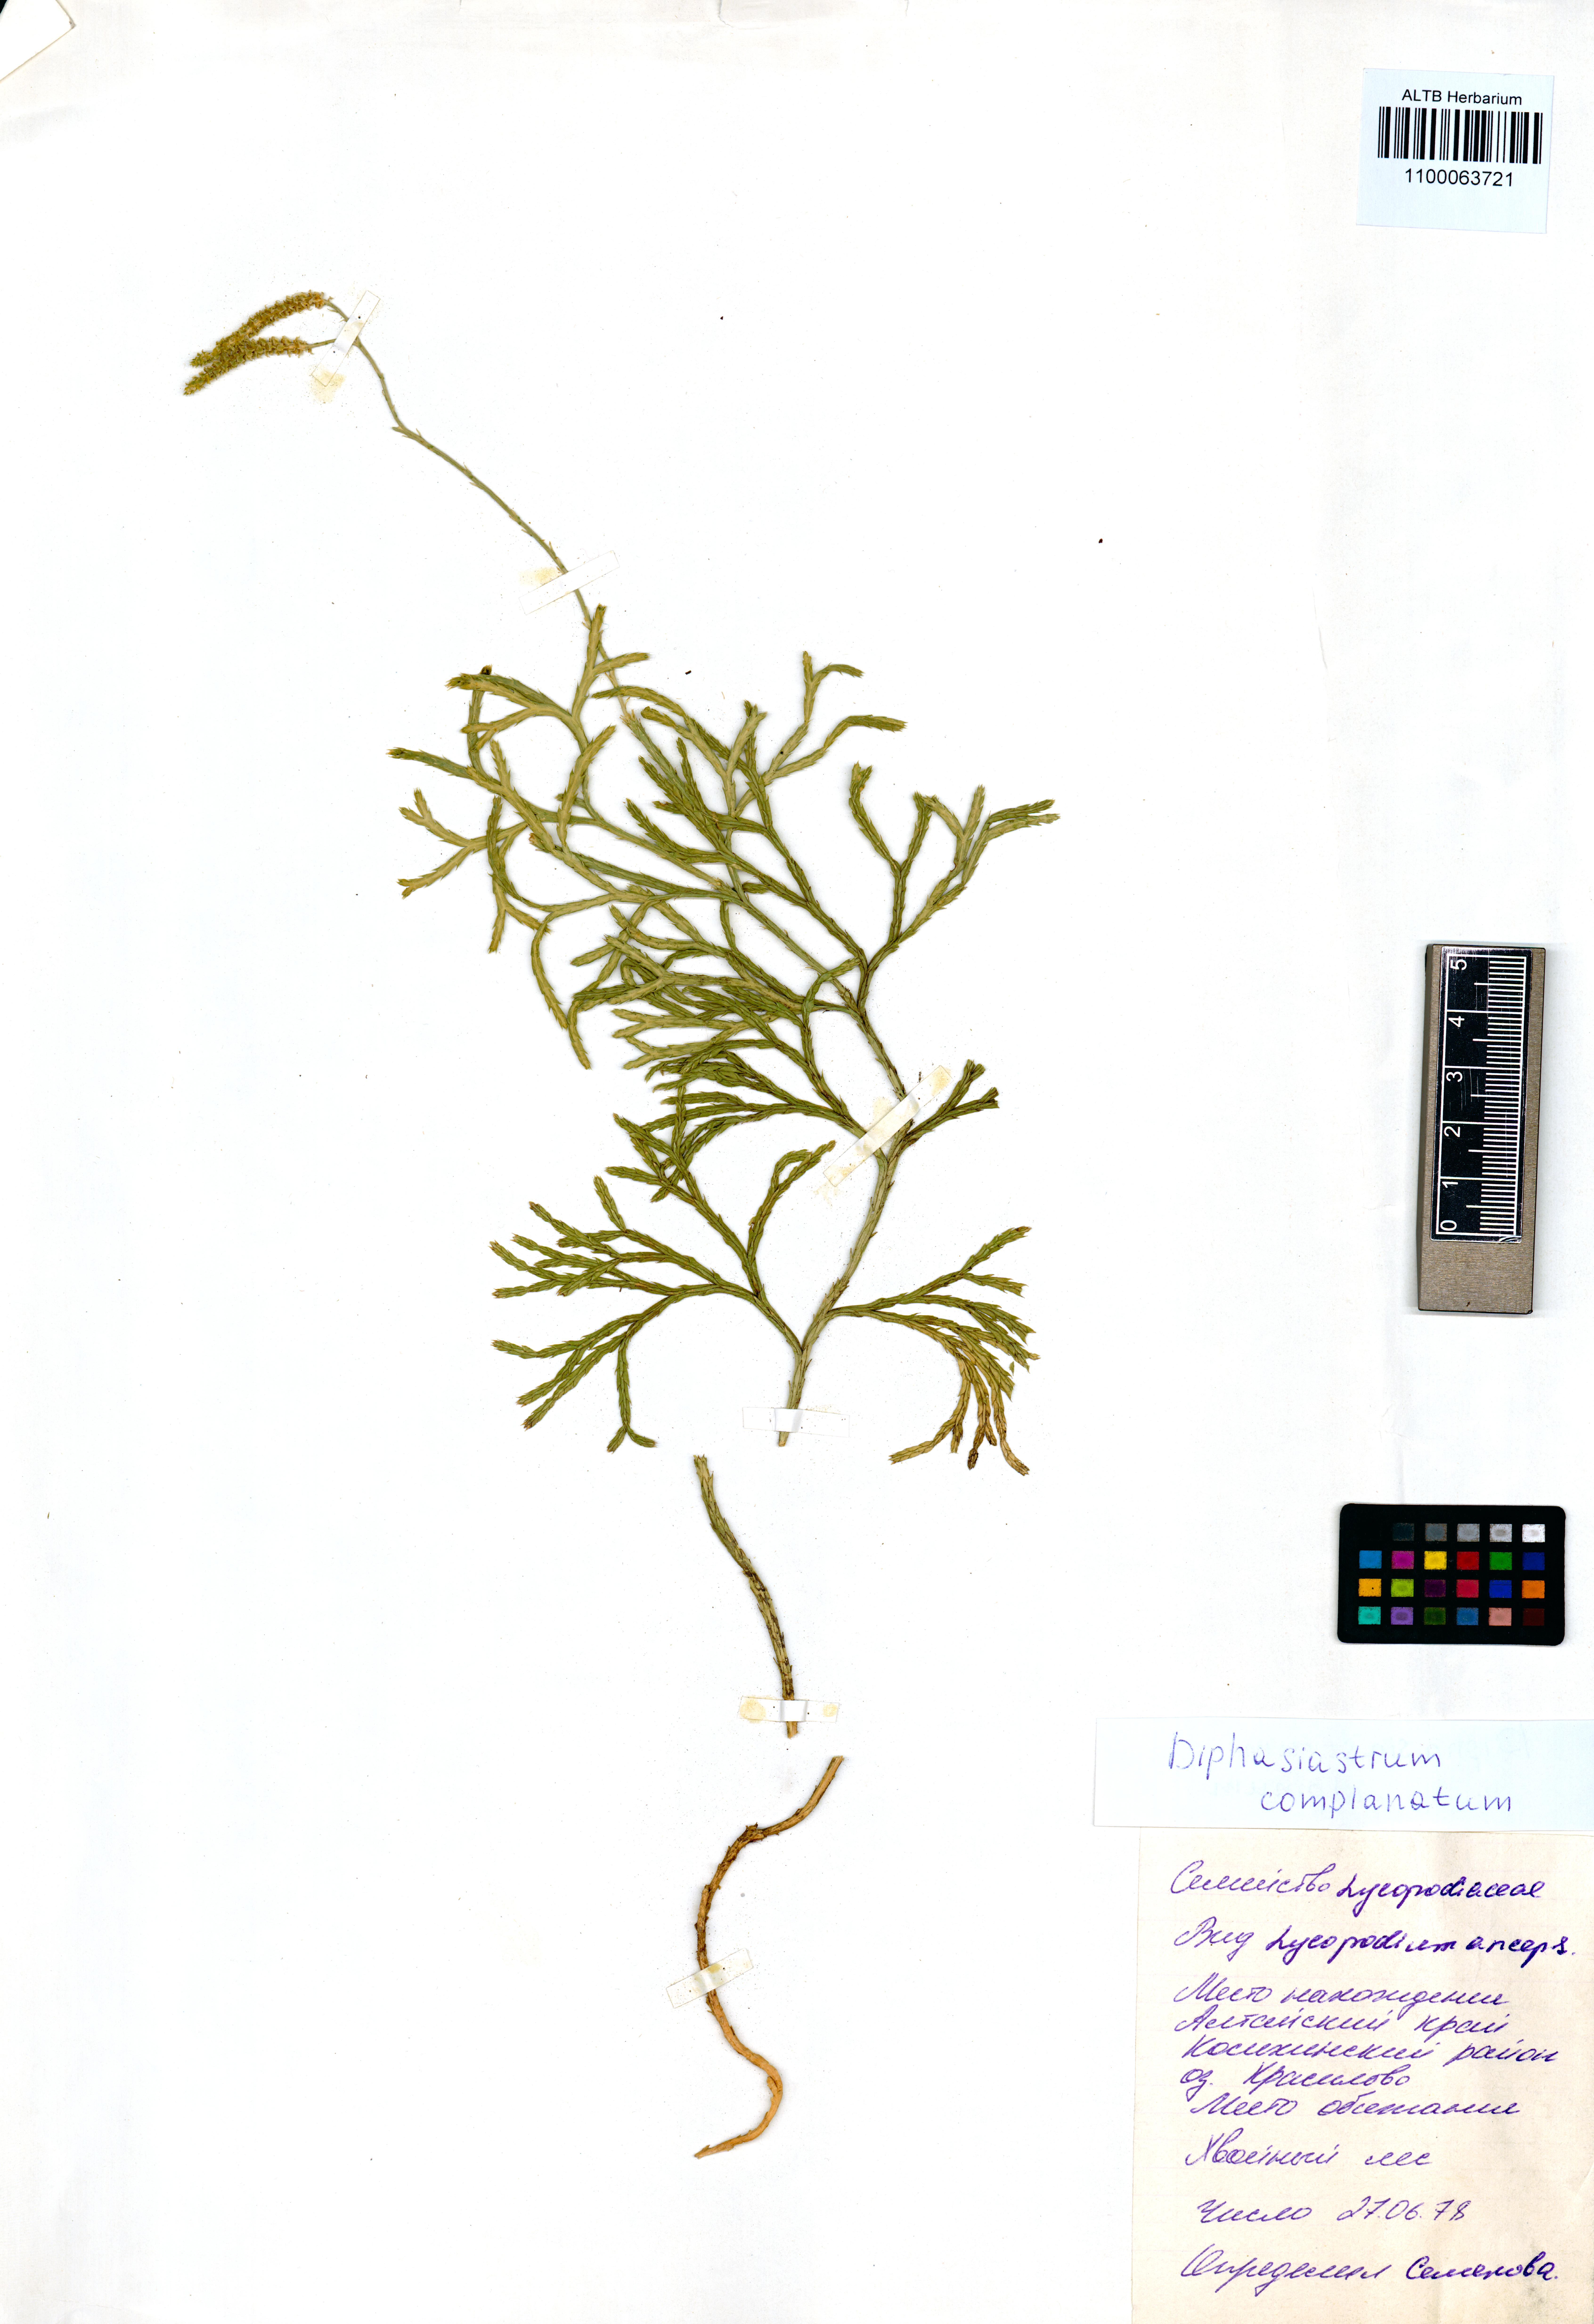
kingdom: Plantae
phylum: Tracheophyta
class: Lycopodiopsida
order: Lycopodiales
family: Lycopodiaceae
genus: Diphasiastrum
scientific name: Diphasiastrum complanatum
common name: Northern running-pine
